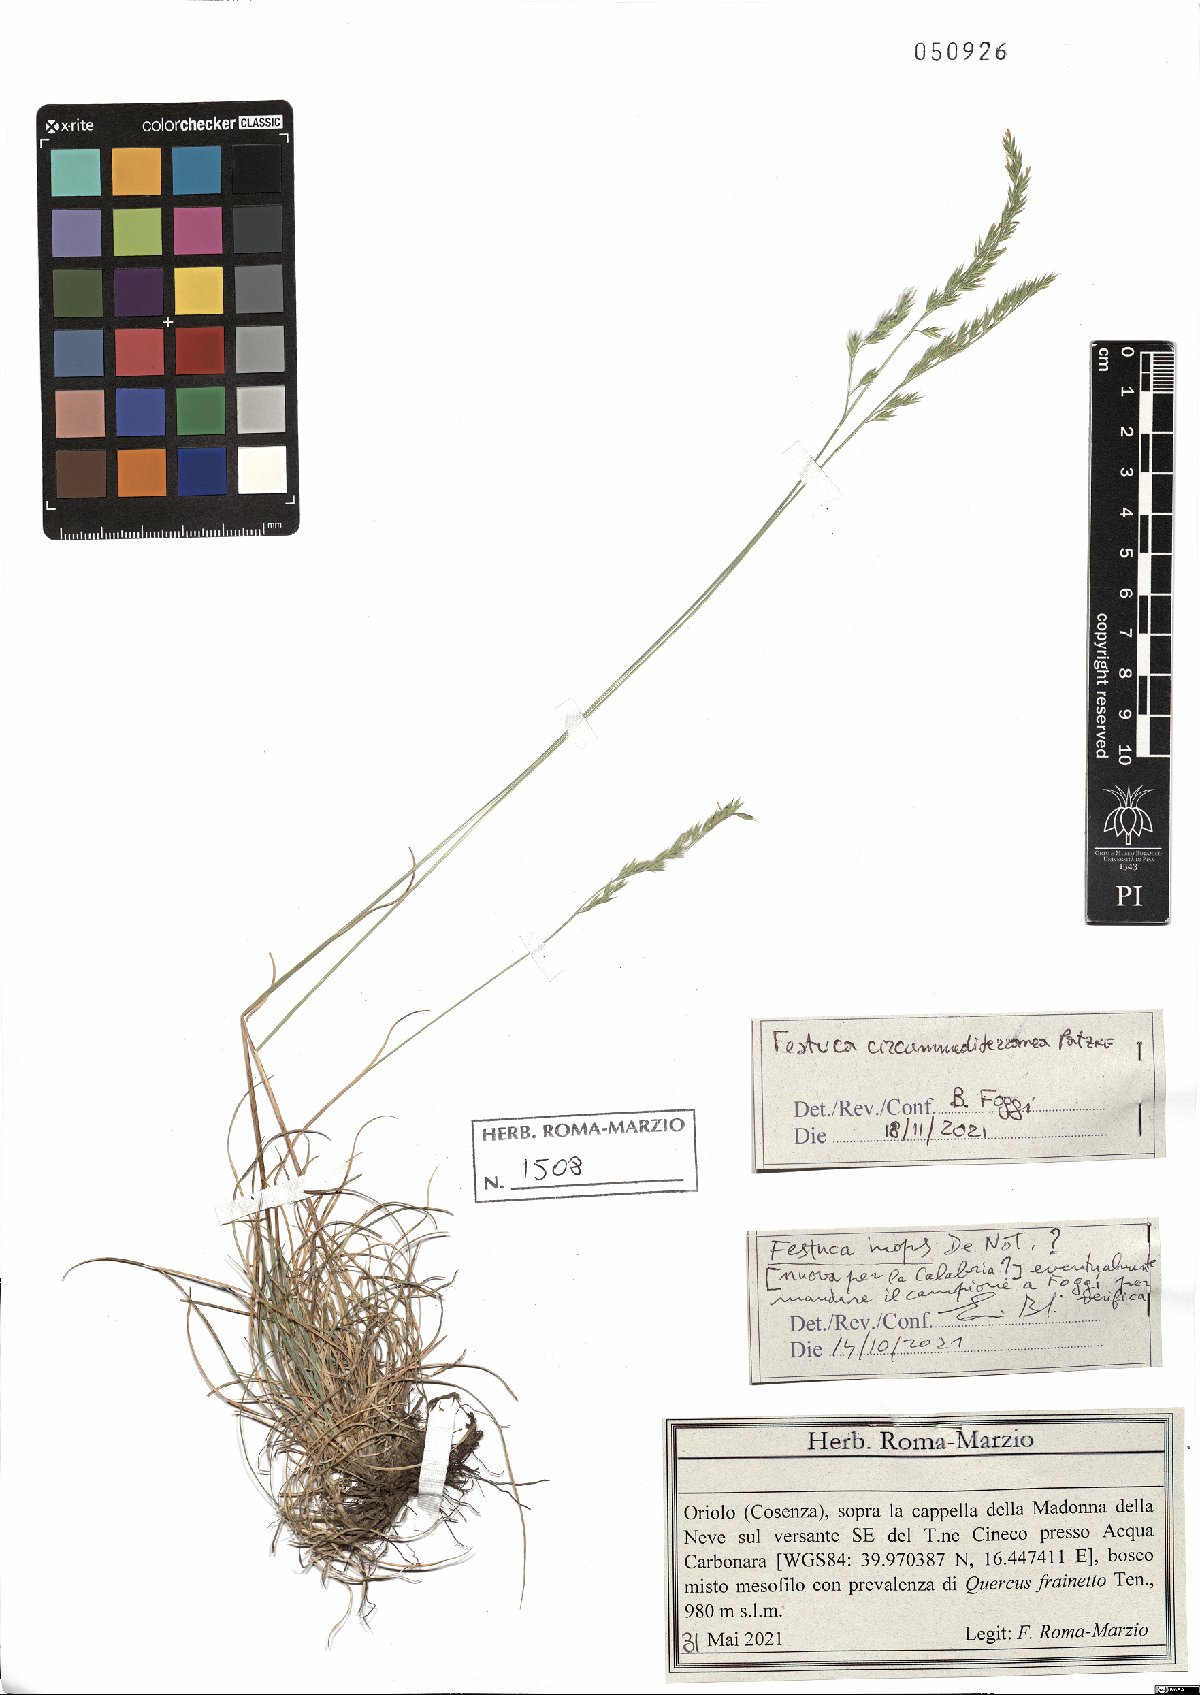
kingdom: Plantae
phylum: Tracheophyta
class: Liliopsida
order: Poales
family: Poaceae
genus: Festuca
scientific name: Festuca circummediterranea
